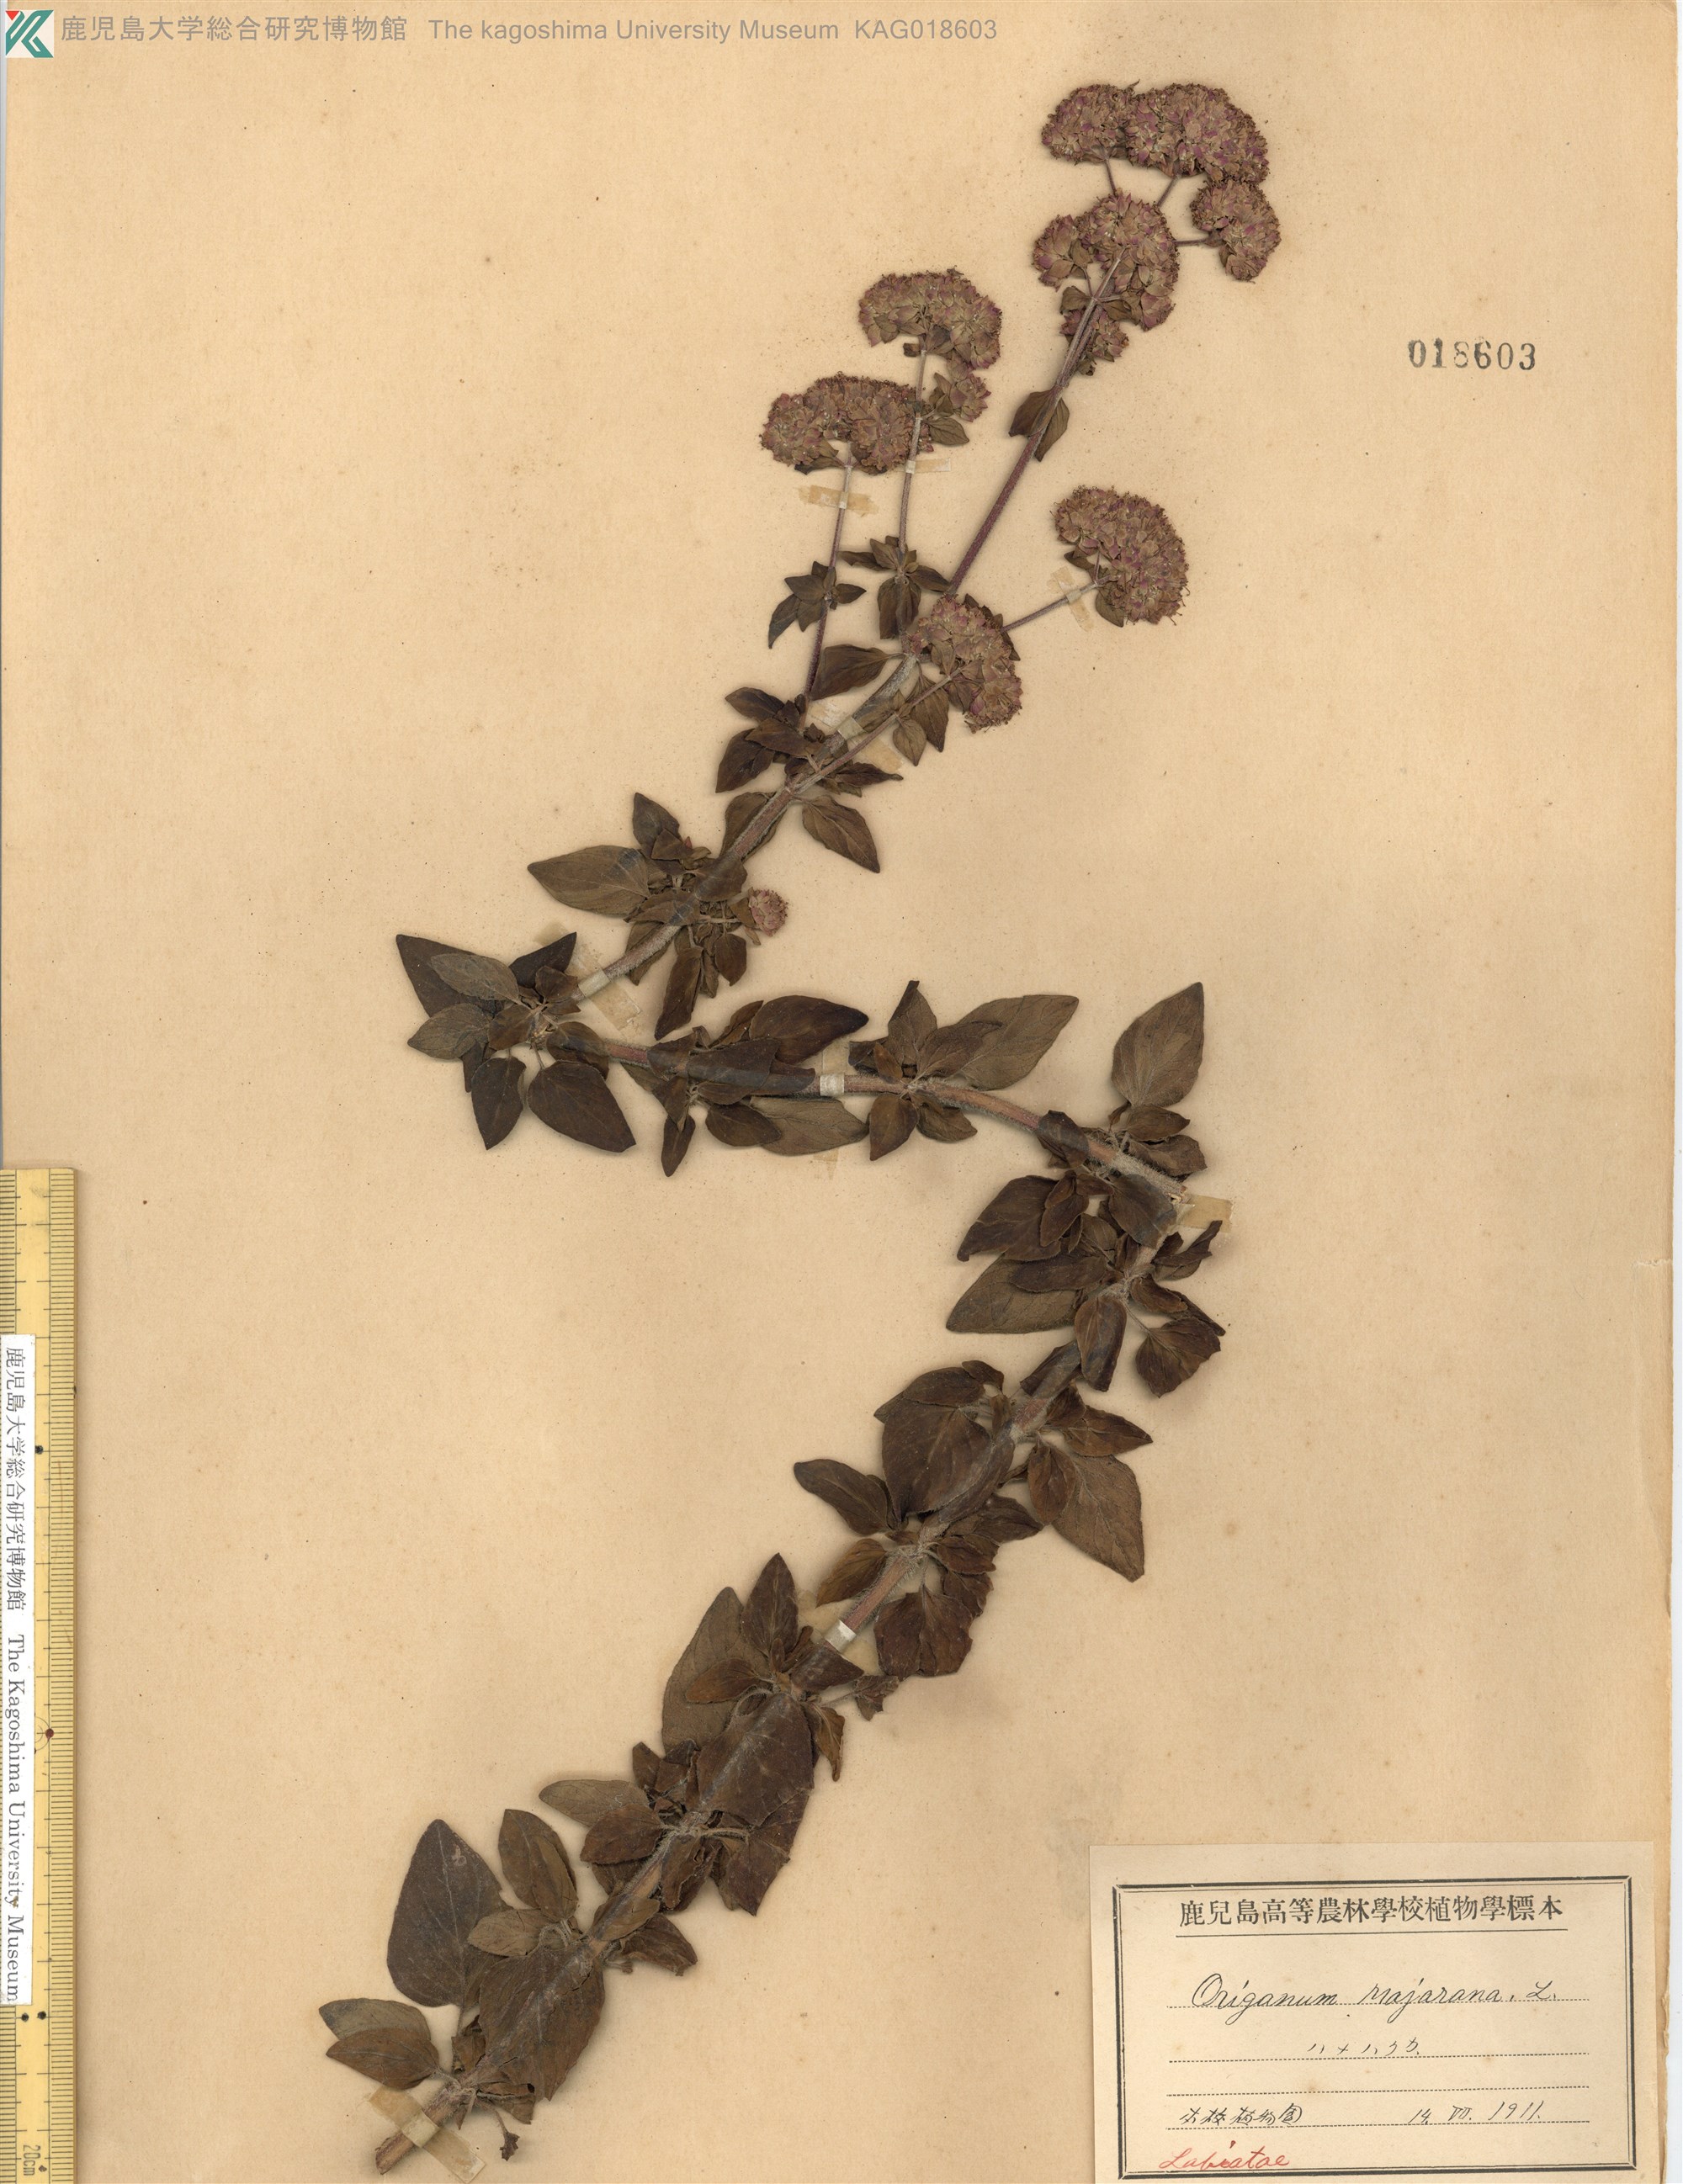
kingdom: Plantae
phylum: Tracheophyta
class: Magnoliopsida
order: Lamiales
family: Lamiaceae
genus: Origanum
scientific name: Origanum majorana
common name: Sweet marjoram
